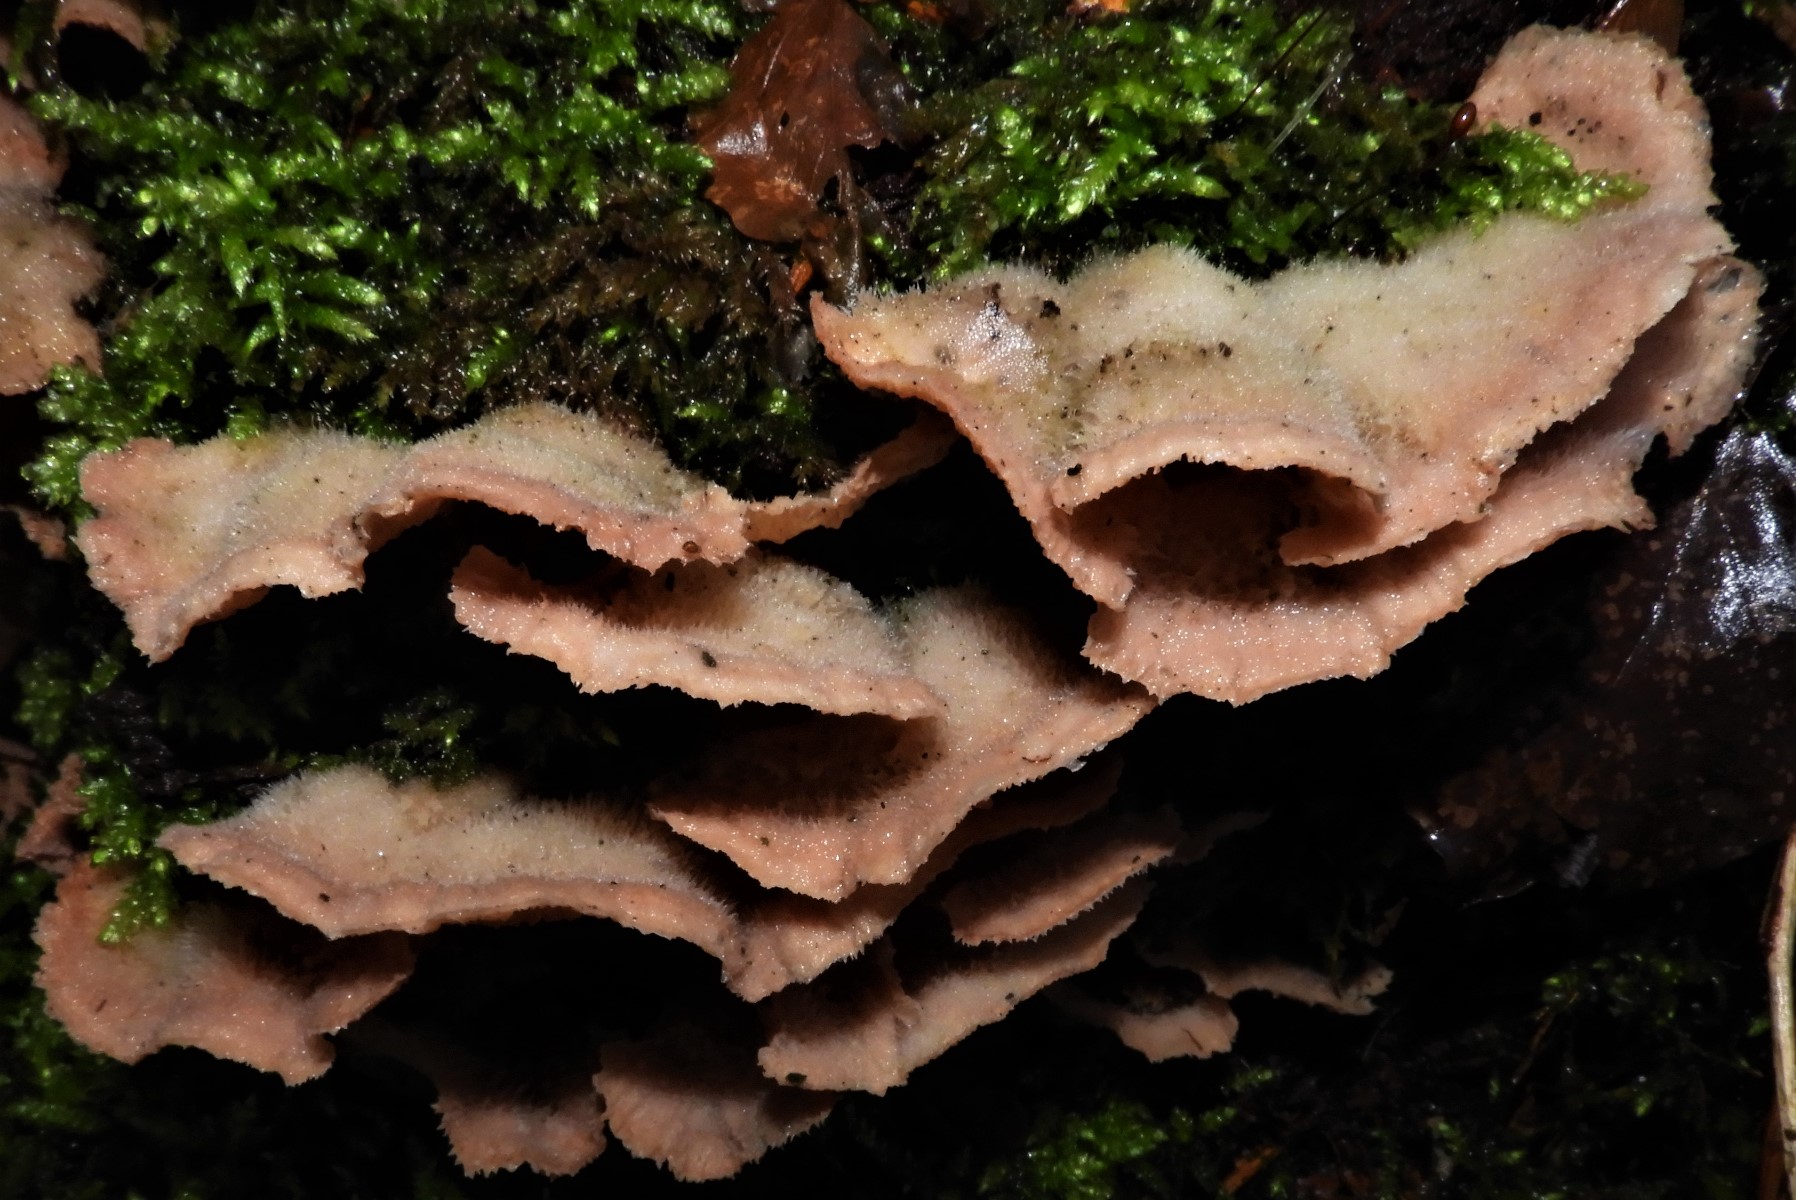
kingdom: Fungi
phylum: Basidiomycota
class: Agaricomycetes
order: Polyporales
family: Meruliaceae
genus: Phlebia
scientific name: Phlebia tremellosa
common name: bævrende åresvamp
